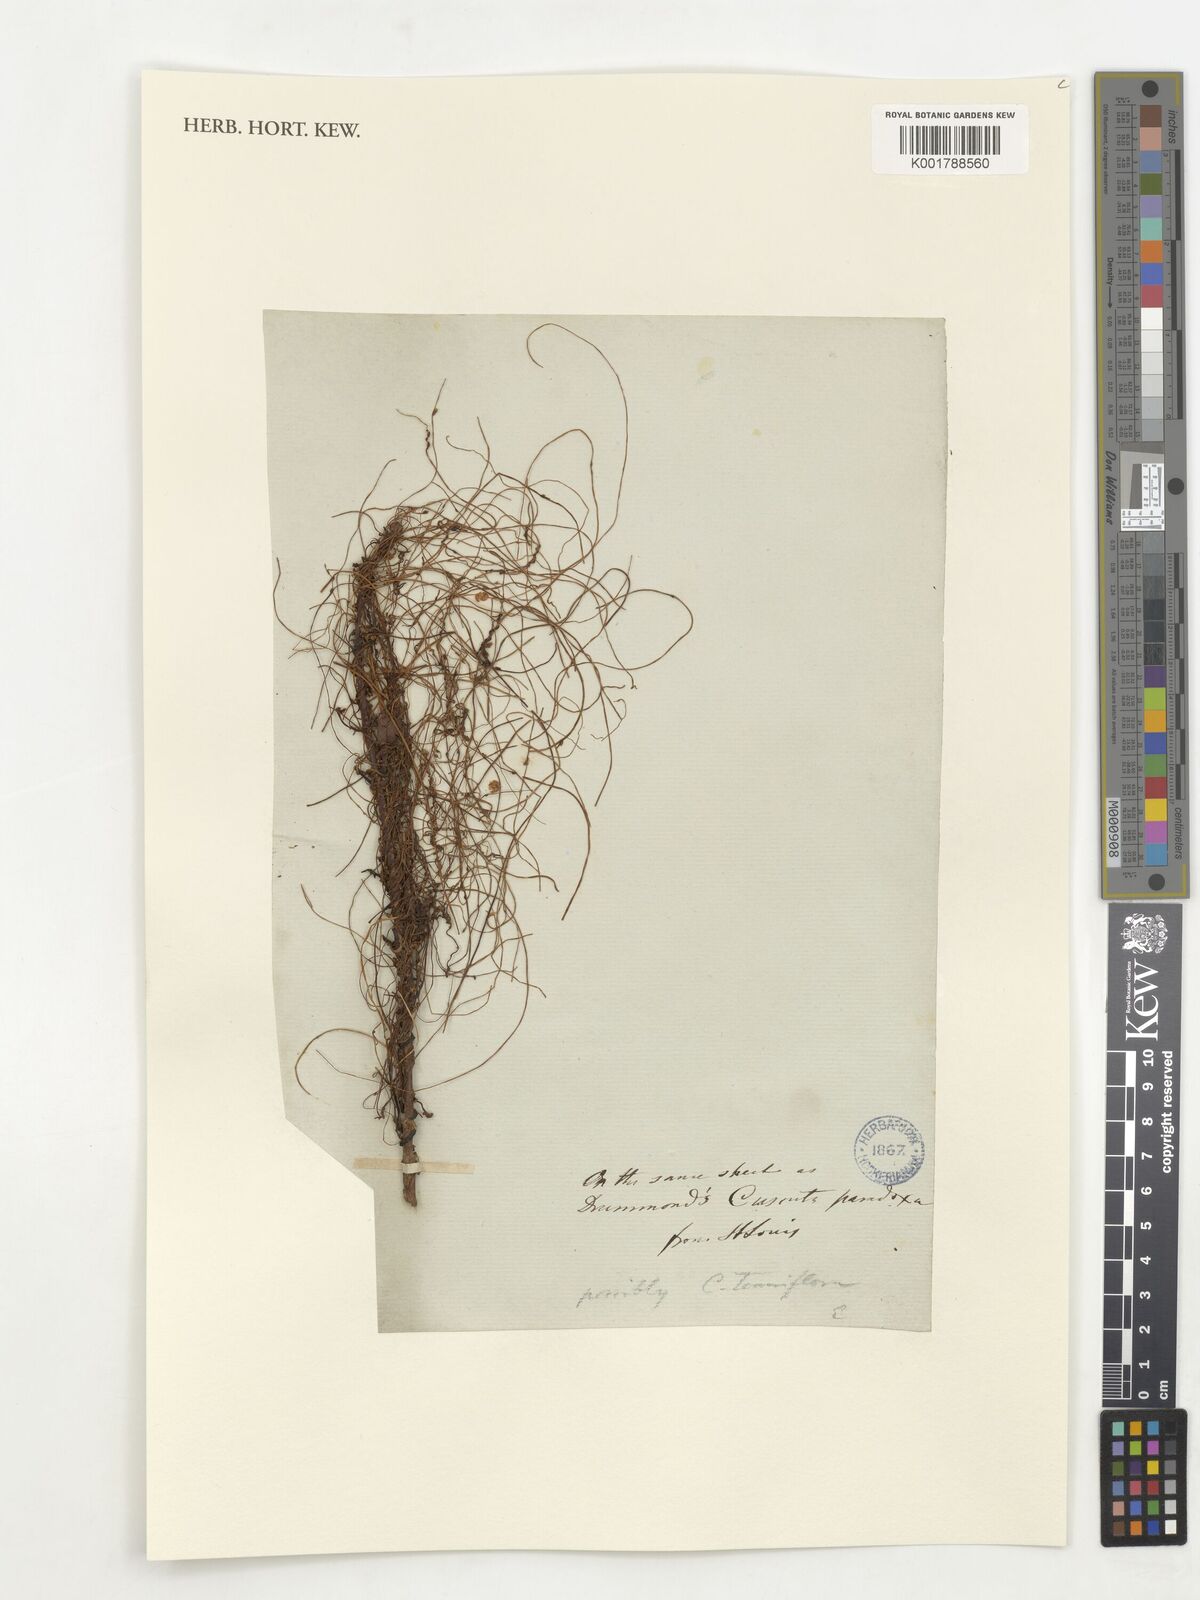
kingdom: Plantae
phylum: Tracheophyta
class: Magnoliopsida
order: Solanales
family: Convolvulaceae
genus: Cuscuta
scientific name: Cuscuta cephalanthi
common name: Button dodder
